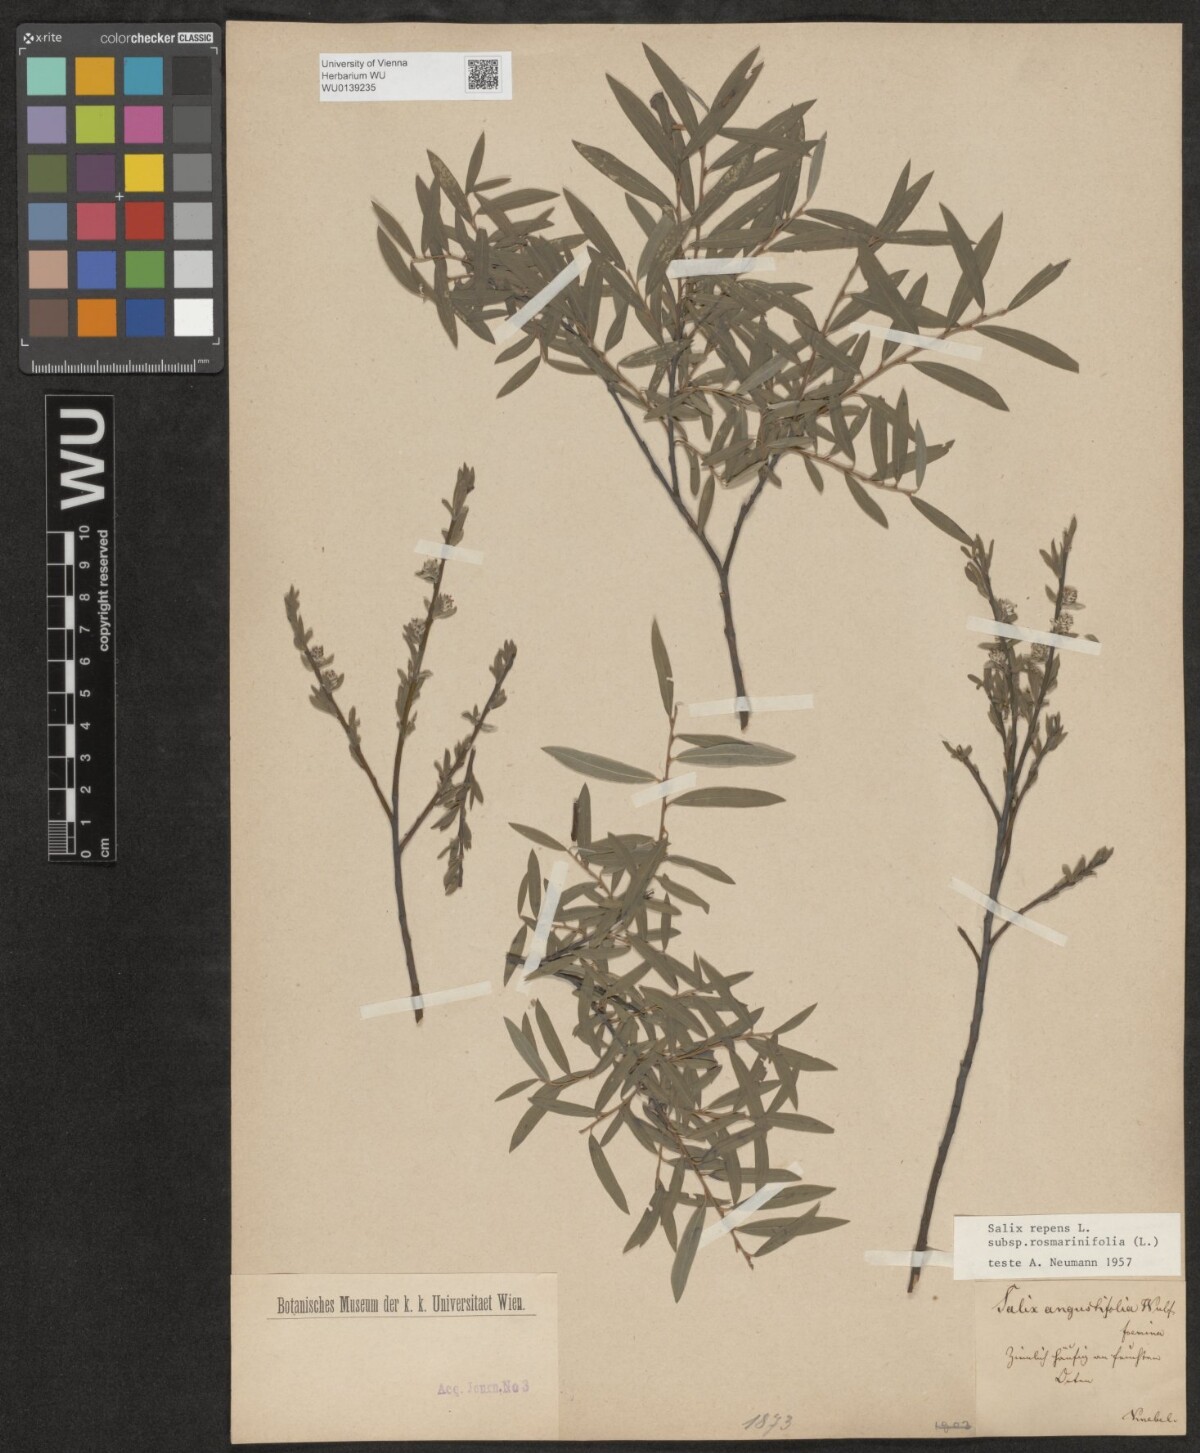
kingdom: Plantae
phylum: Tracheophyta
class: Magnoliopsida
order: Malpighiales
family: Salicaceae
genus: Salix
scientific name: Salix repens
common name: Creeping willow
